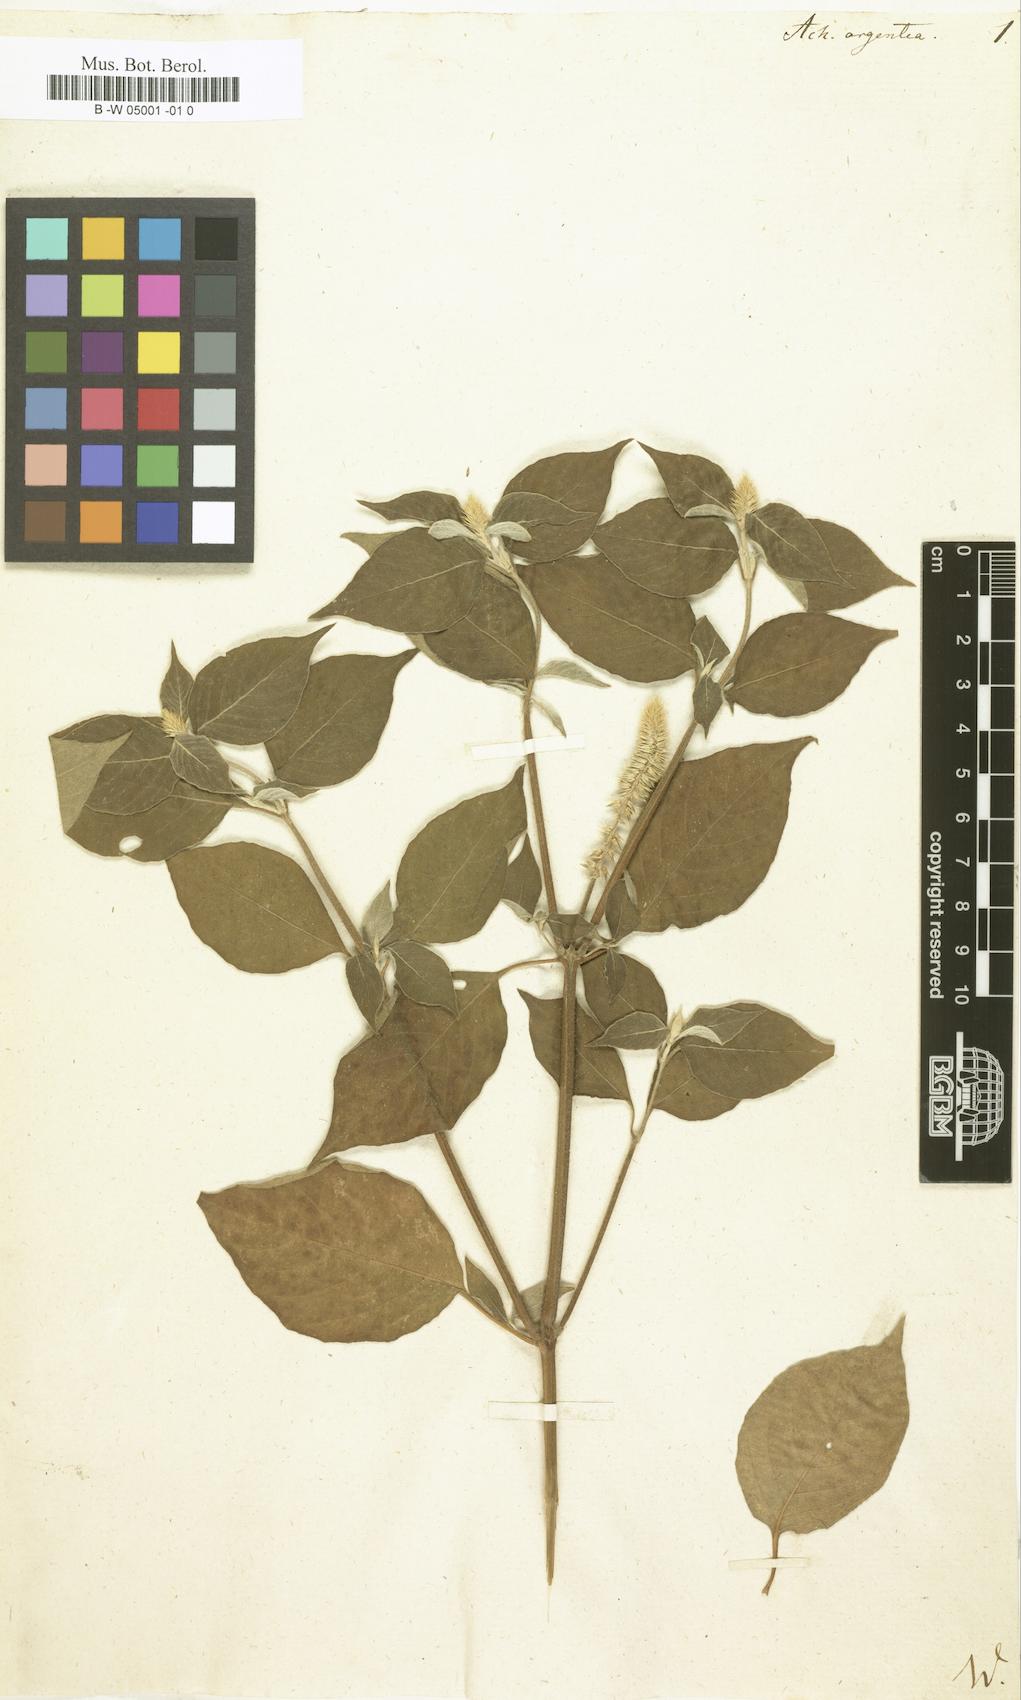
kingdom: Plantae
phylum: Tracheophyta
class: Magnoliopsida
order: Caryophyllales
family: Amaranthaceae
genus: Achyranthes
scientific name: Achyranthes sicula
